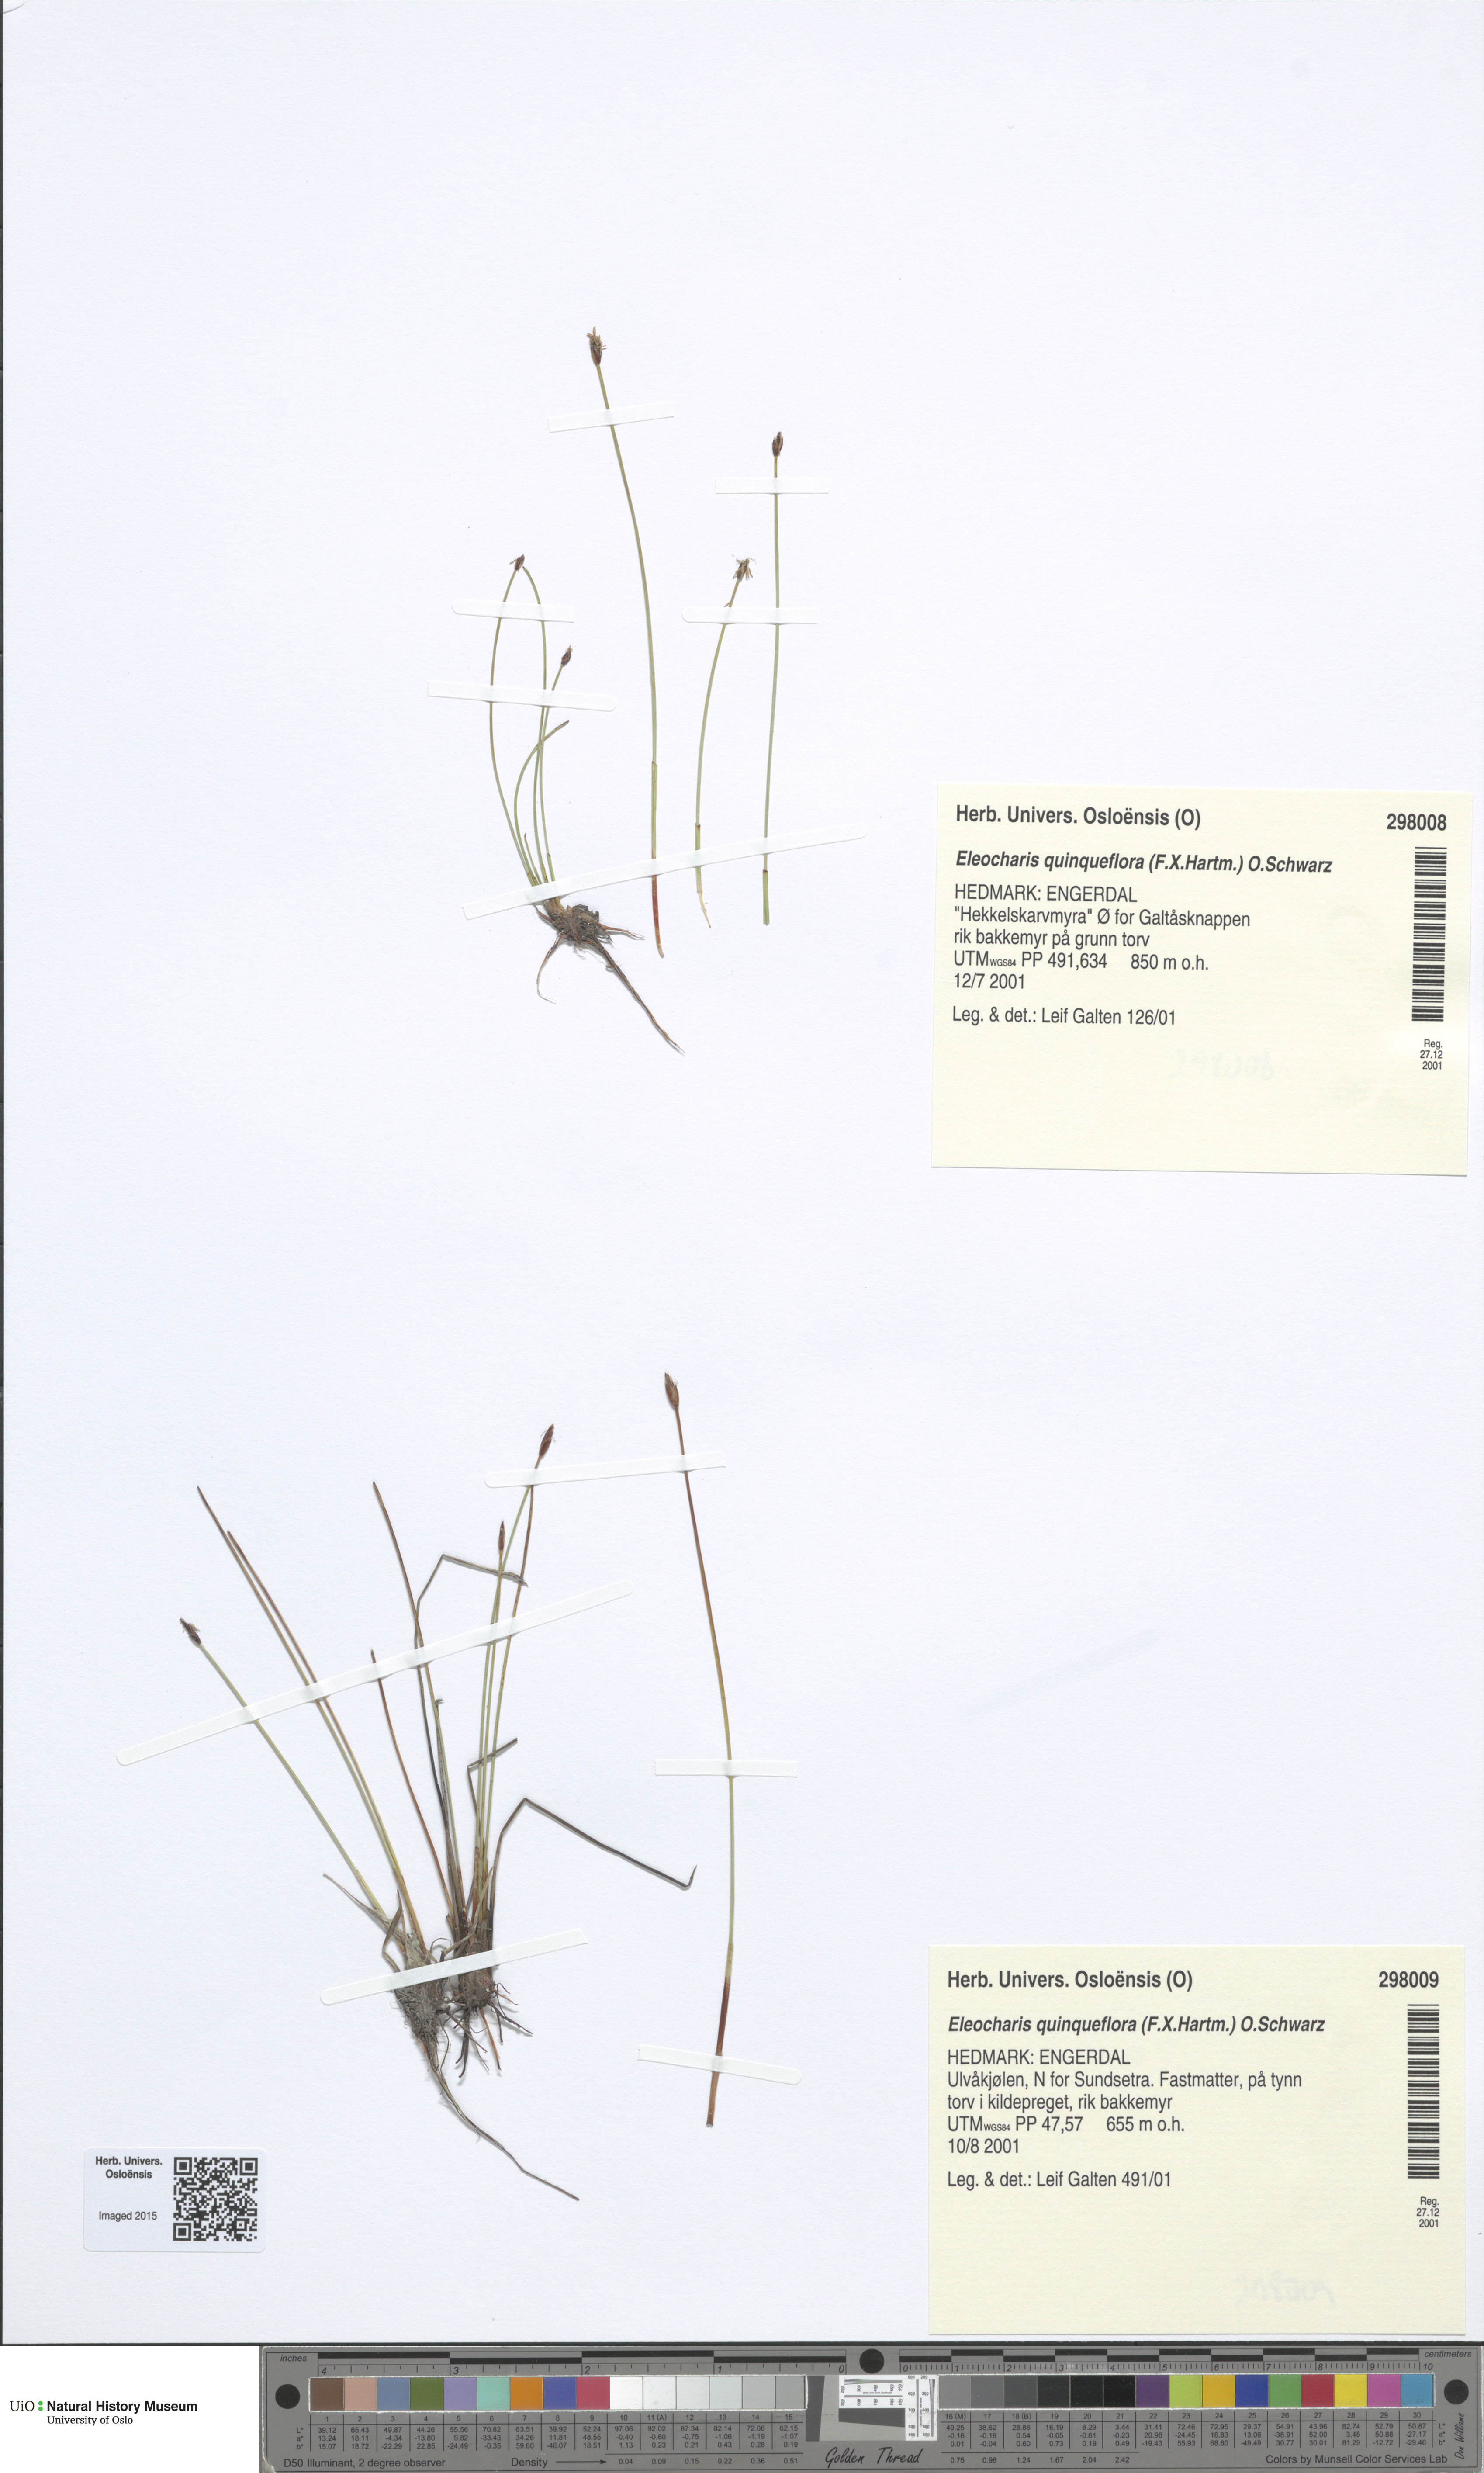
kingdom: Plantae
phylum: Tracheophyta
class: Liliopsida
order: Poales
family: Cyperaceae
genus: Eleocharis
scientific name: Eleocharis quinqueflora
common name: Few-flowered spike-rush
